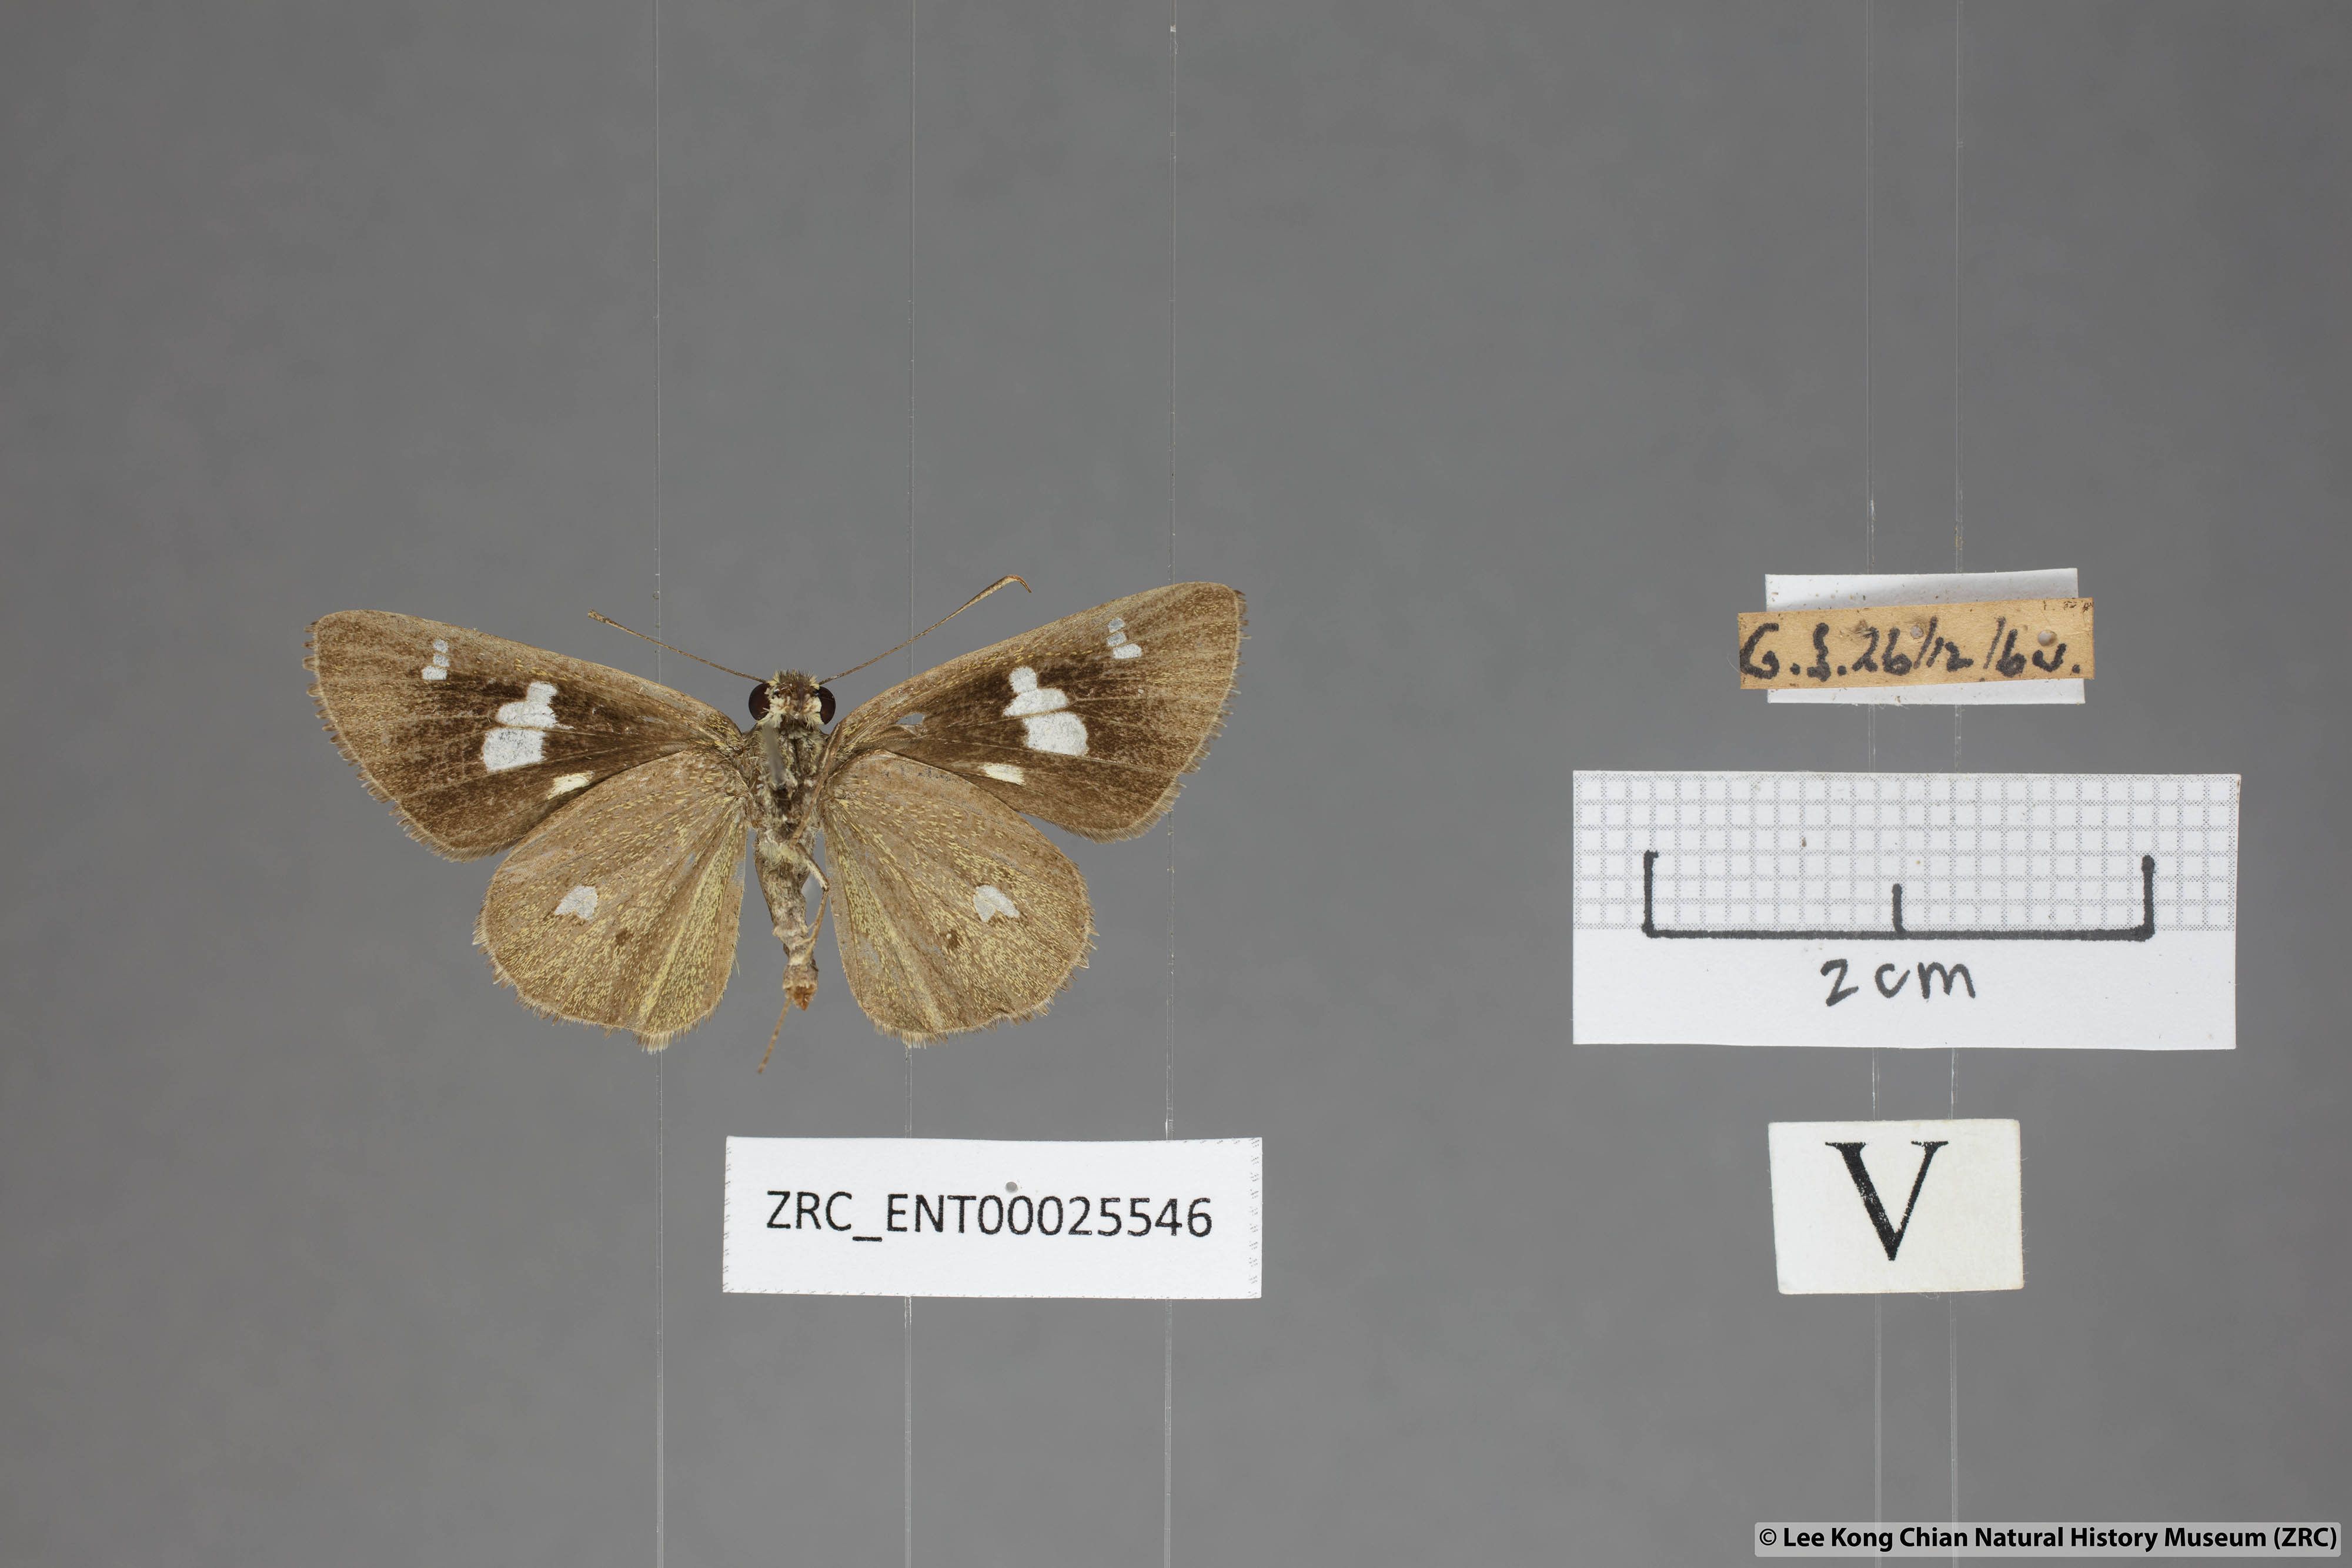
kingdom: Animalia
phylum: Arthropoda
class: Insecta
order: Lepidoptera
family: Hesperiidae
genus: Scobura
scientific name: Scobura phiditia
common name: Malay forest bob
